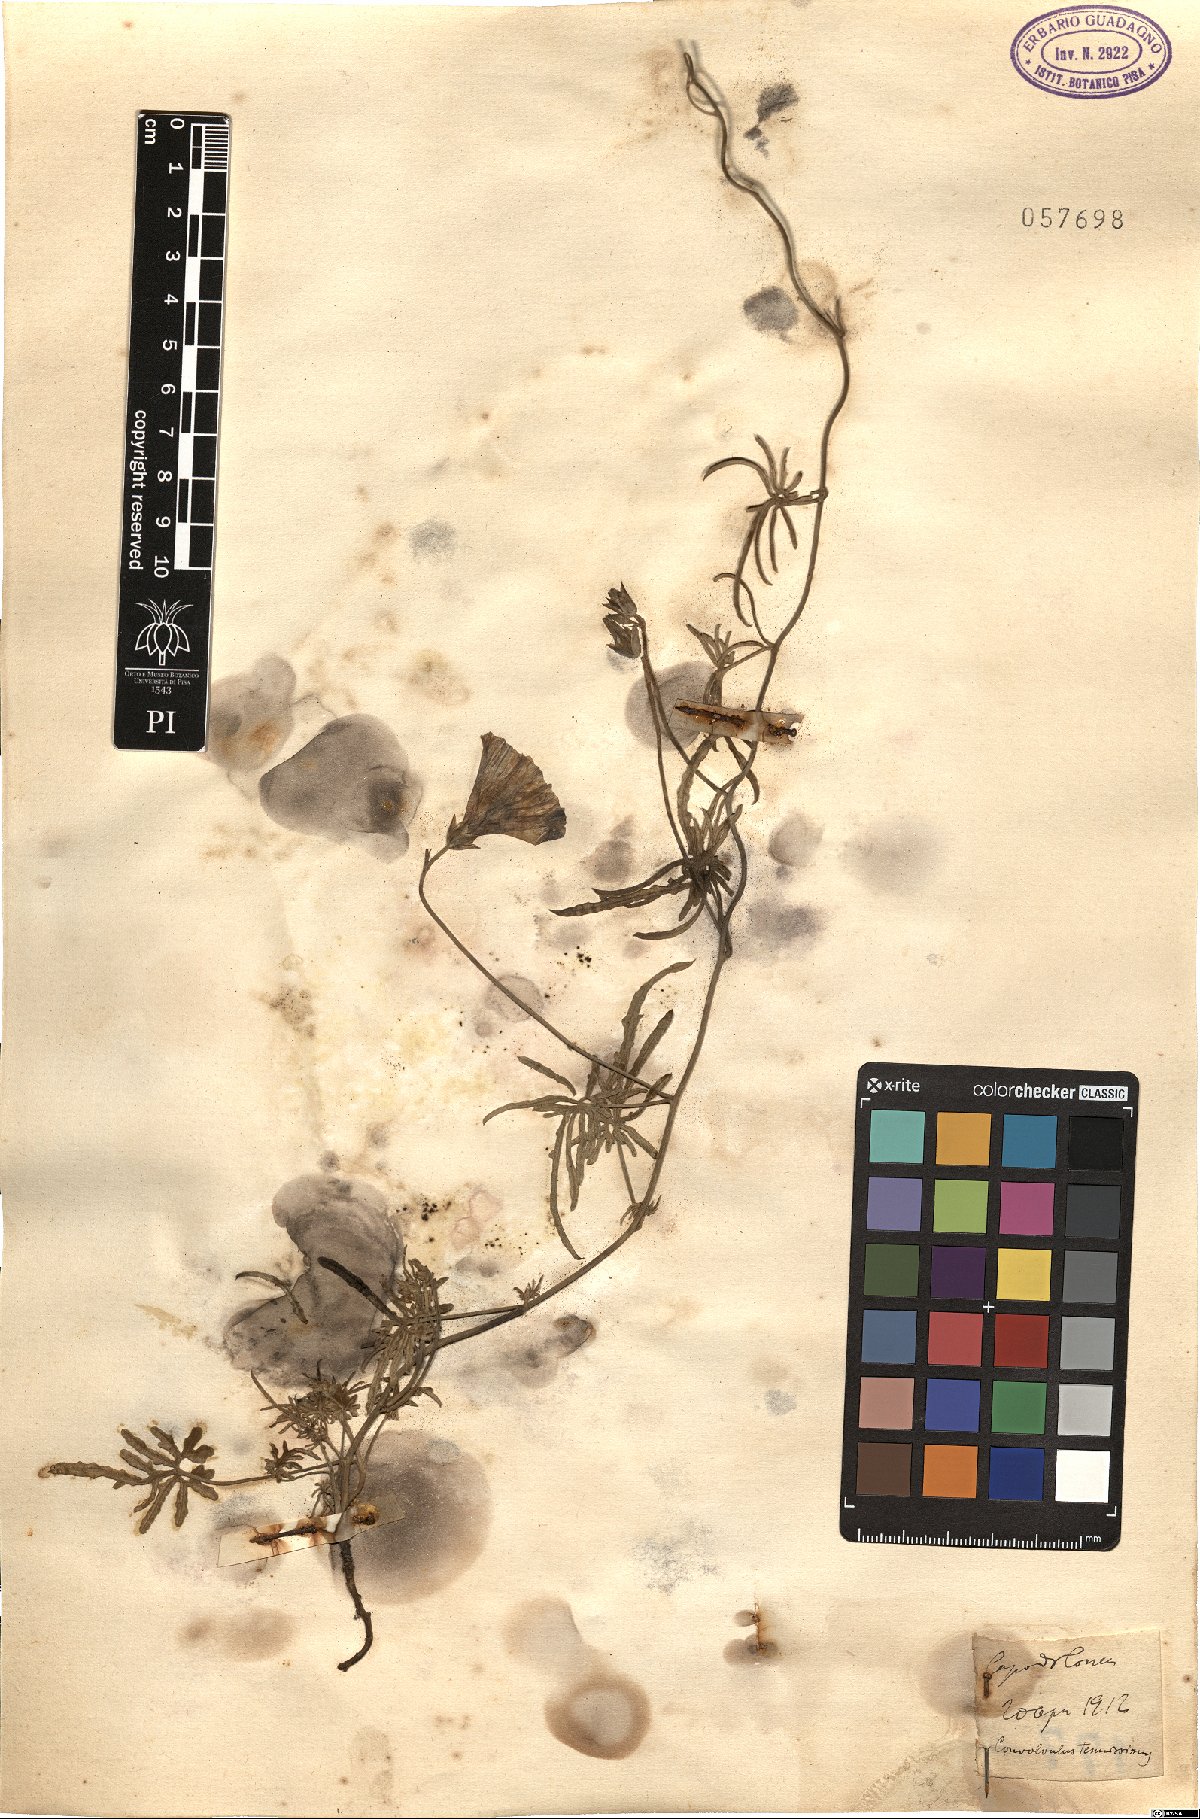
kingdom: Plantae
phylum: Tracheophyta
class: Magnoliopsida
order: Solanales
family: Convolvulaceae
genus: Convolvulus
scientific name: Convolvulus elegantissimus
